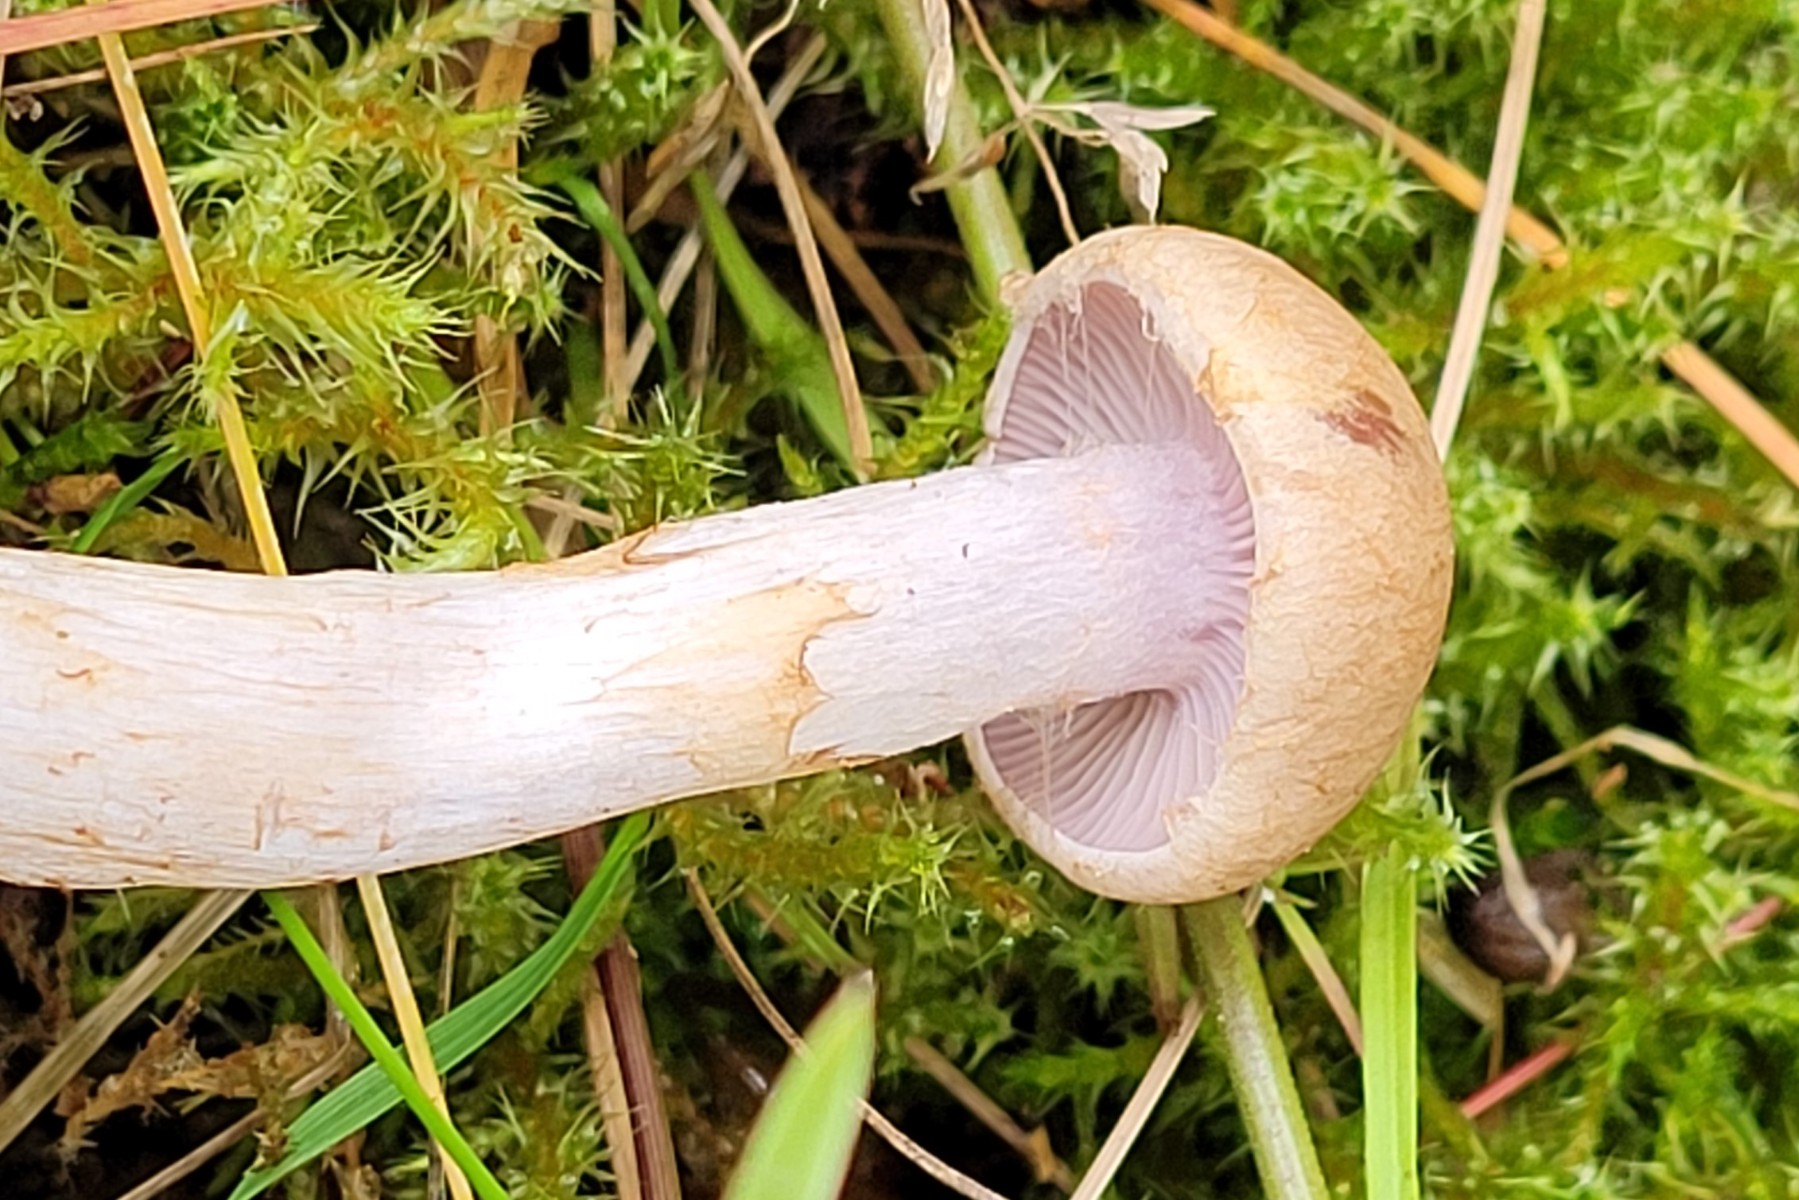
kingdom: Fungi
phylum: Basidiomycota
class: Agaricomycetes
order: Agaricales
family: Cortinariaceae
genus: Cortinarius
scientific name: Cortinarius caninus
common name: gran-slørhat
